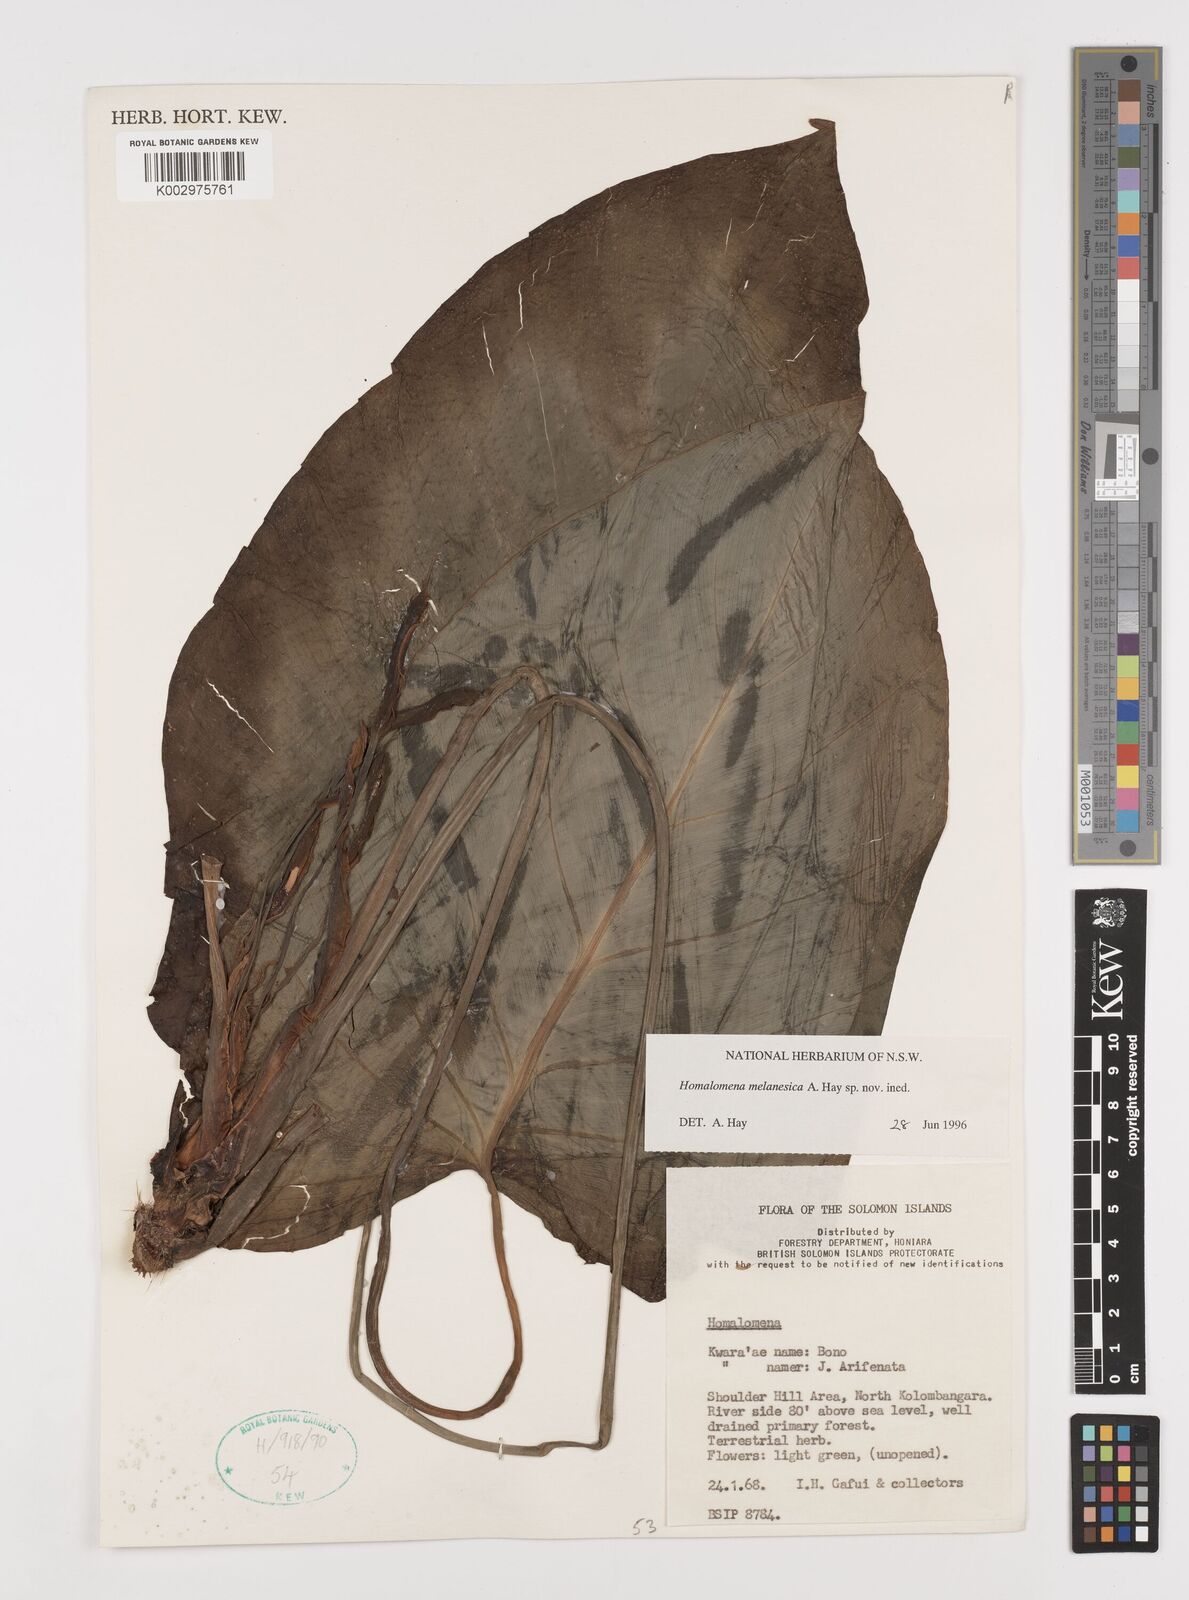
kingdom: Plantae
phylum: Tracheophyta
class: Liliopsida
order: Alismatales
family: Araceae
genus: Homalomena
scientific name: Homalomena melanesica
